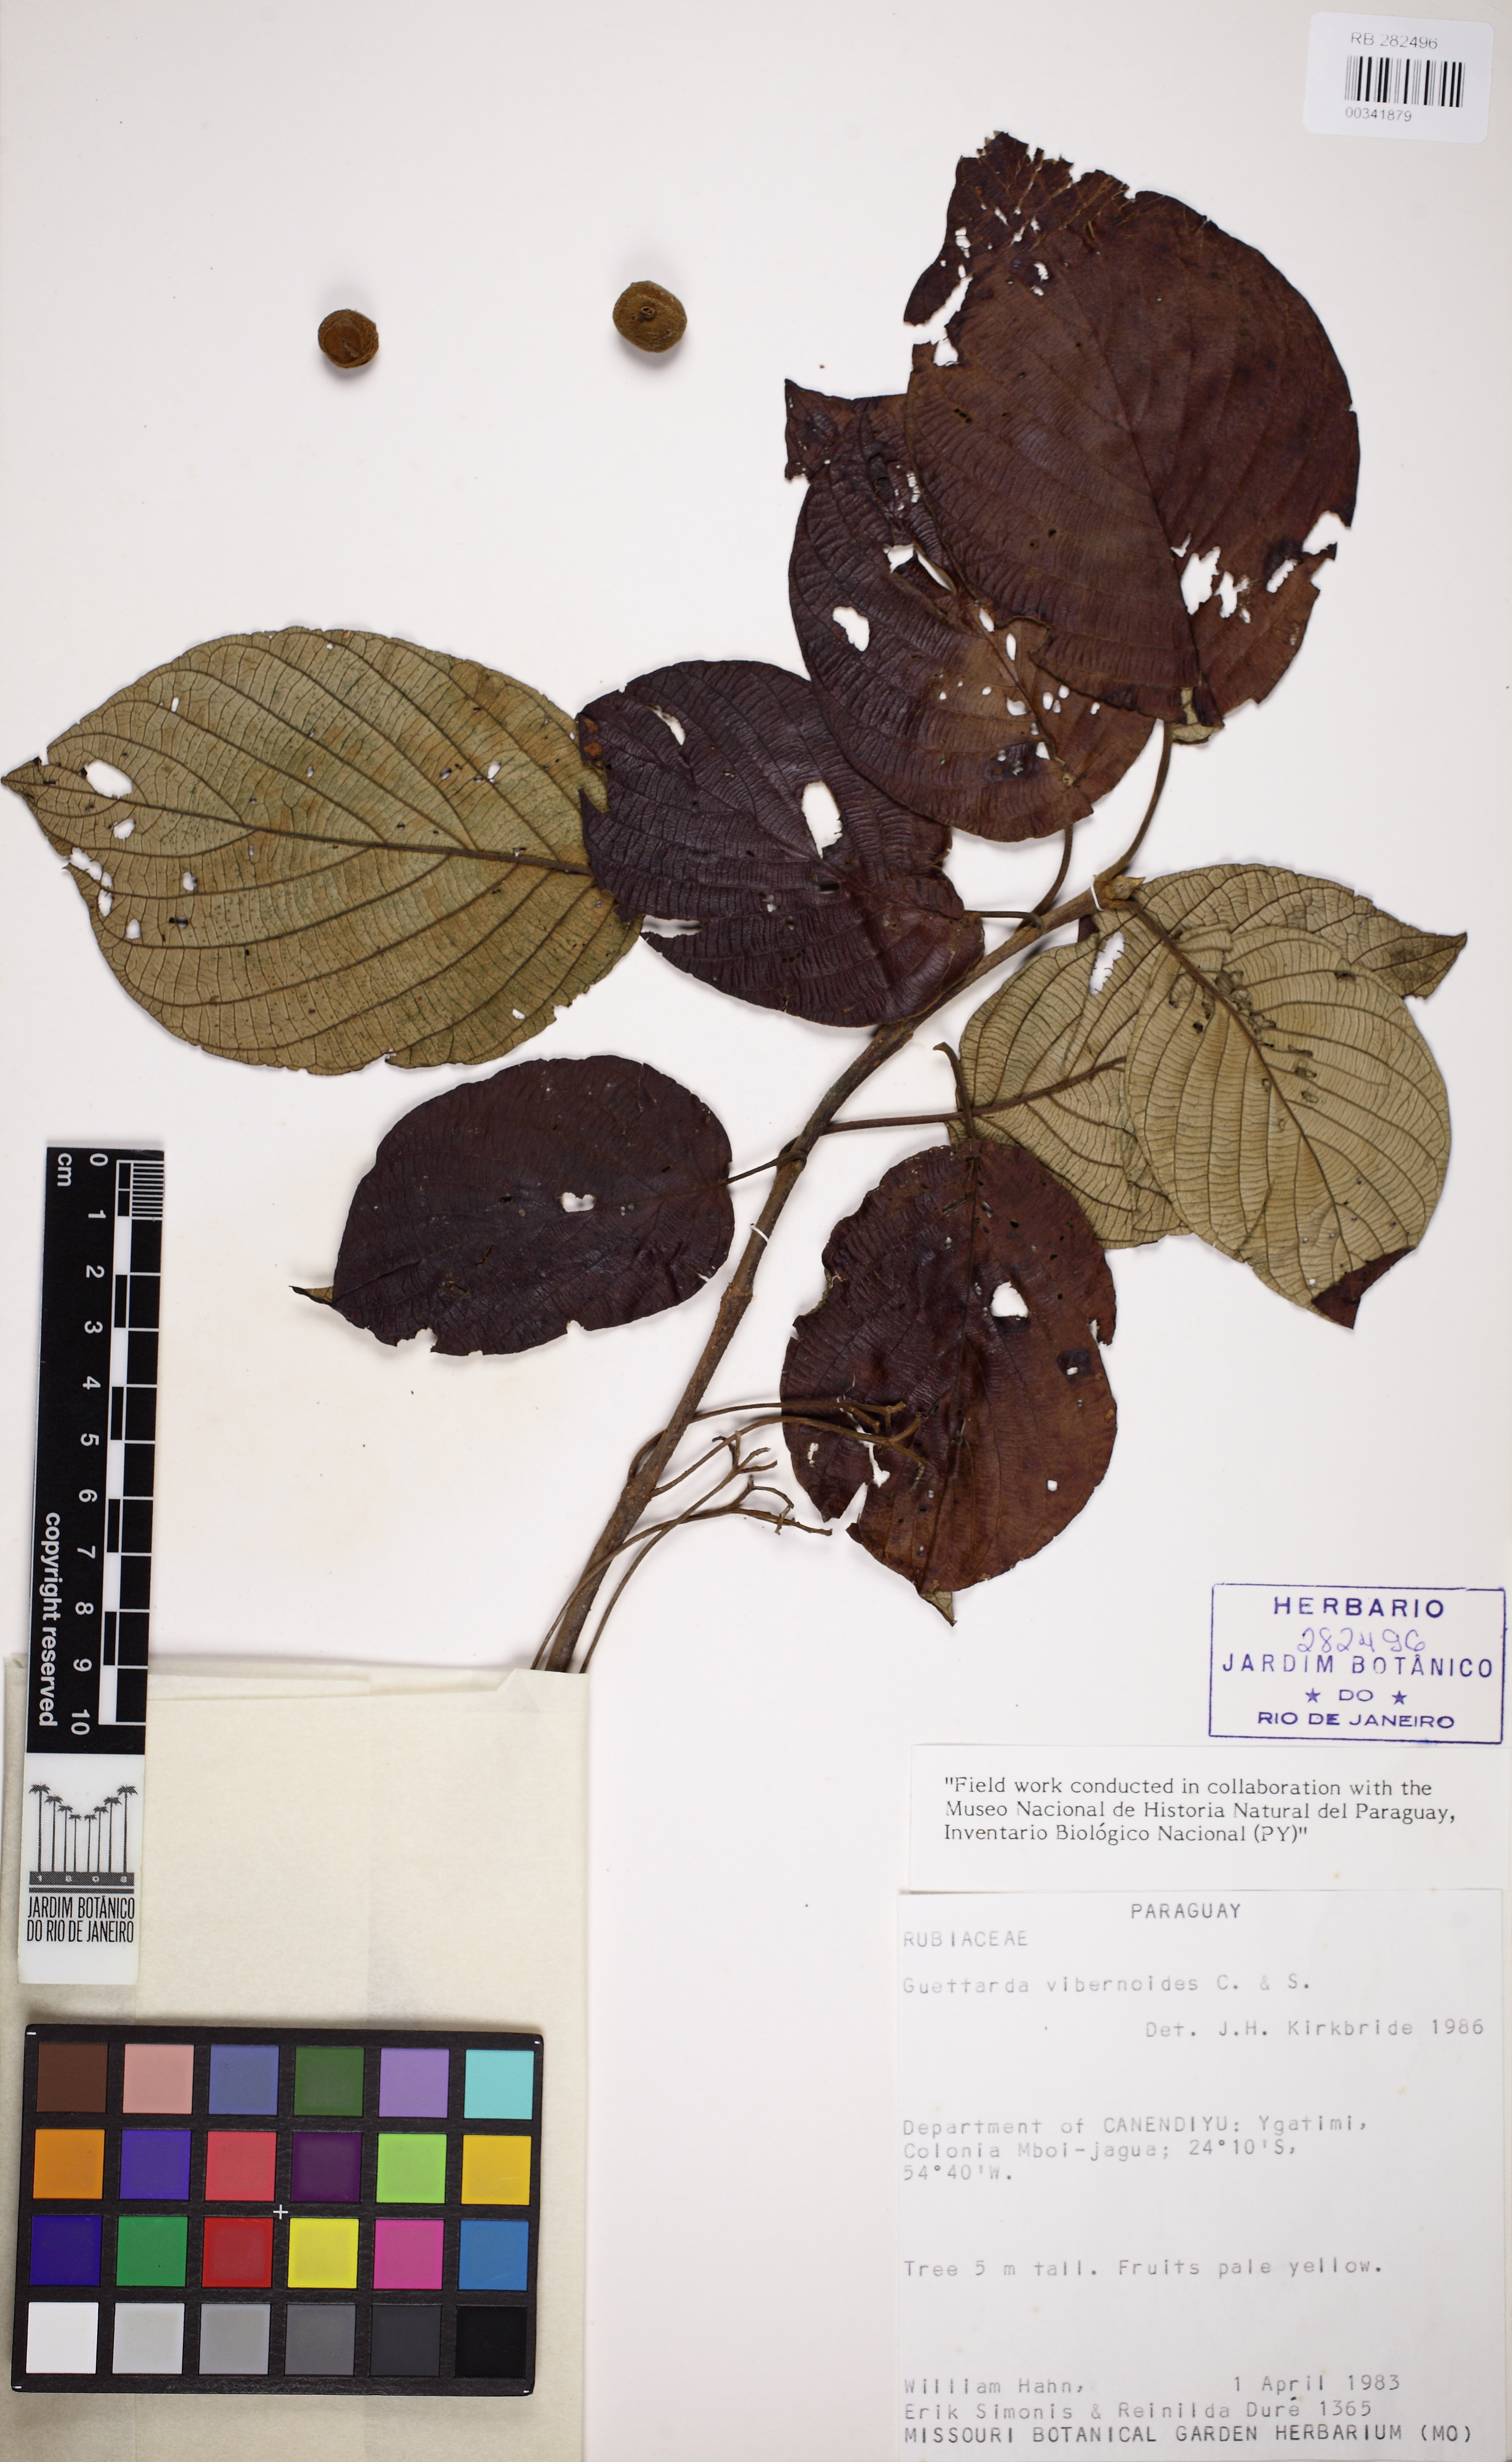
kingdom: Plantae
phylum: Tracheophyta
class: Magnoliopsida
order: Gentianales
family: Rubiaceae
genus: Guettarda
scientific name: Guettarda viburnoides
